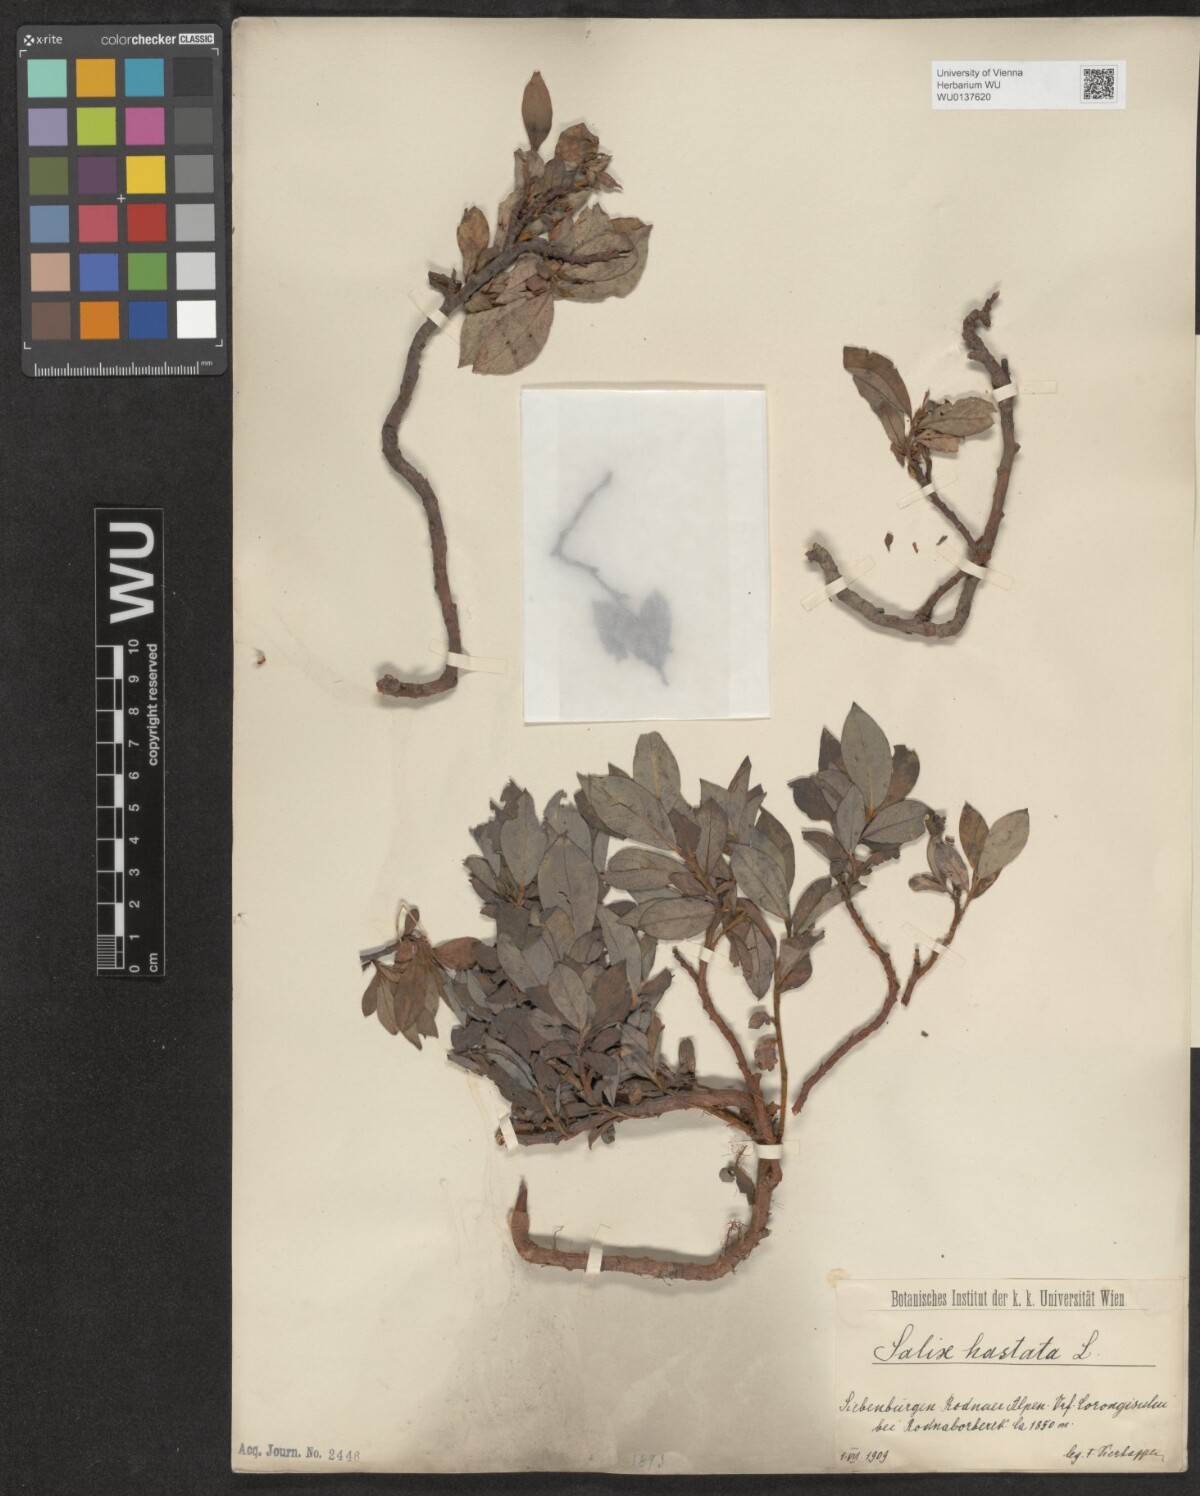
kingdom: Plantae
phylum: Tracheophyta
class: Magnoliopsida
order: Malpighiales
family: Salicaceae
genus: Salix
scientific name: Salix hastata
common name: Halberd willow
